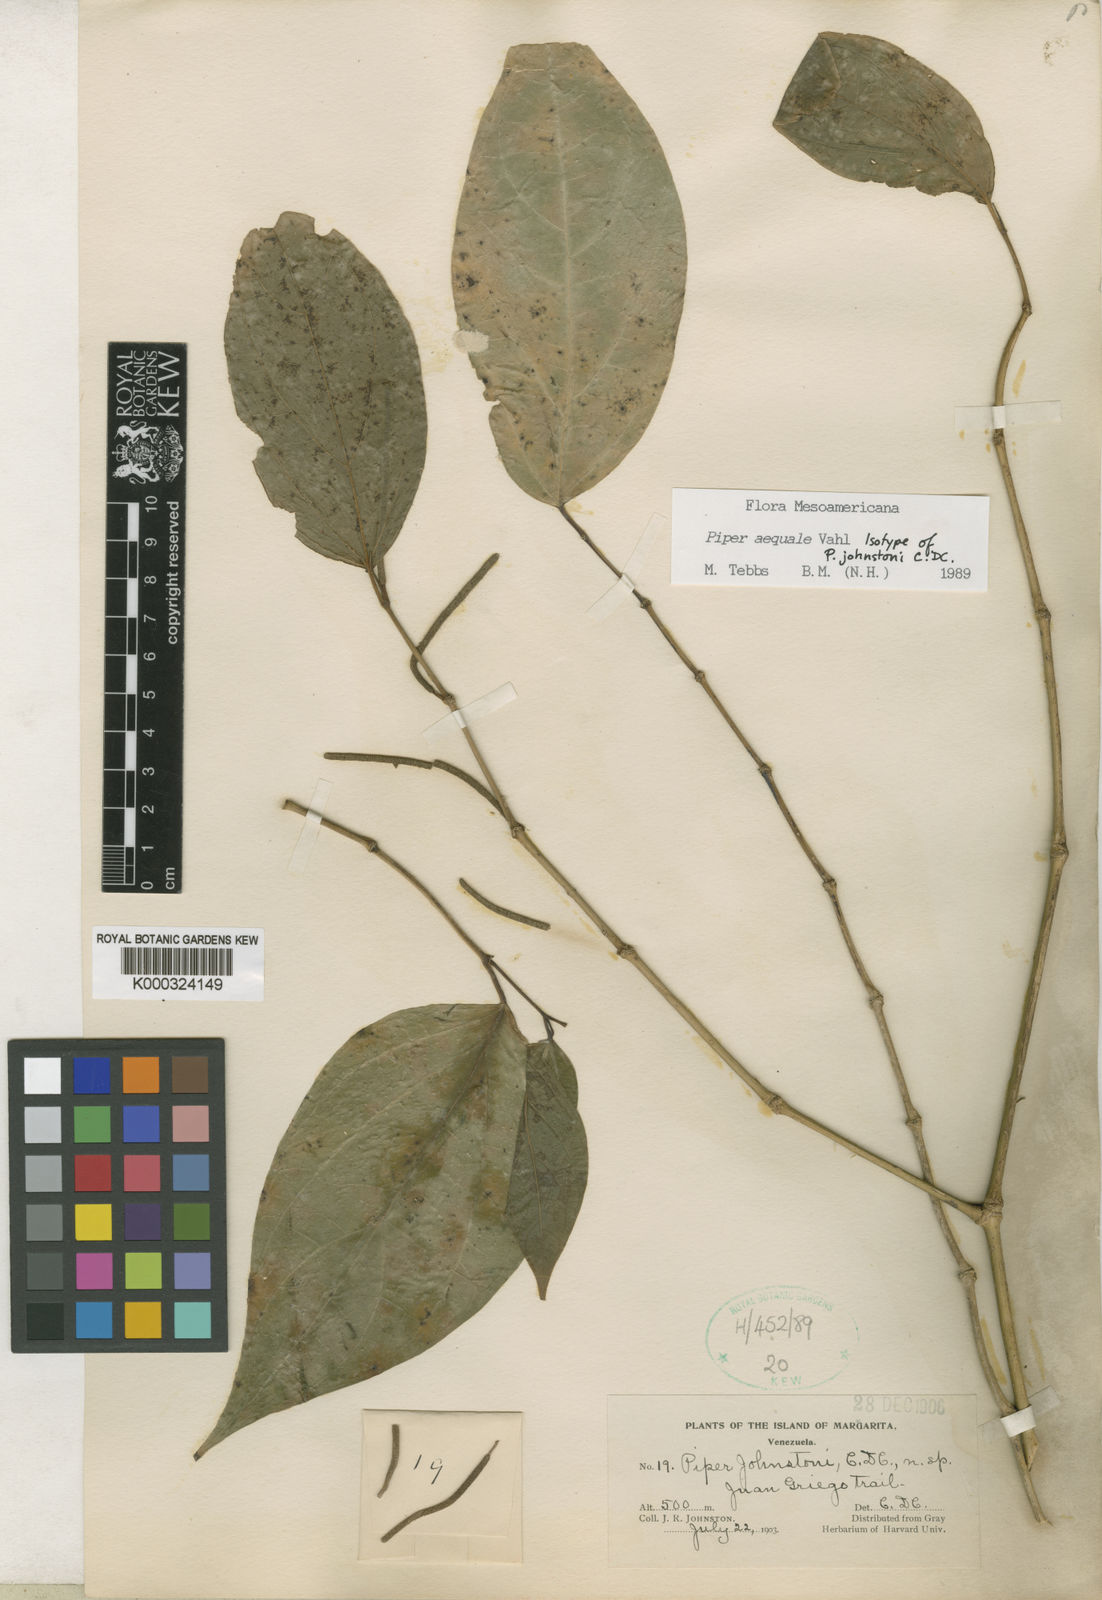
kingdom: Plantae
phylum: Tracheophyta
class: Magnoliopsida
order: Piperales
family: Piperaceae
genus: Piper
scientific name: Piper aequale
